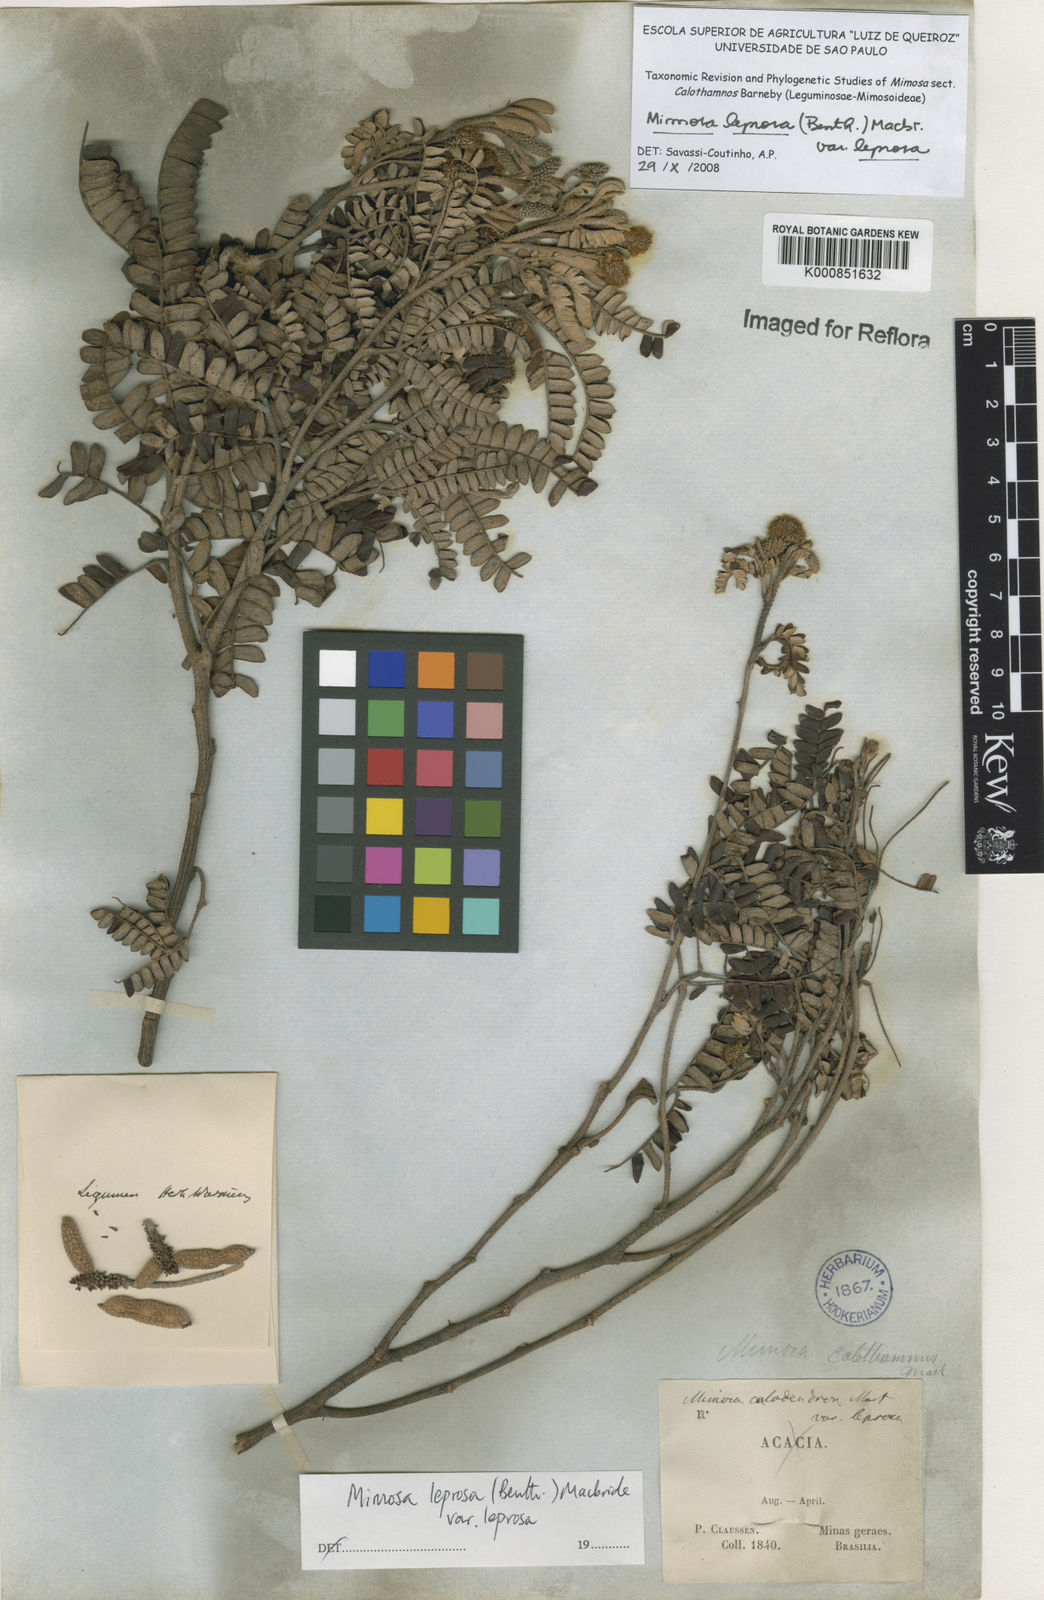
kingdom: Plantae
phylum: Tracheophyta
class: Magnoliopsida
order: Fabales
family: Fabaceae
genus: Mimosa
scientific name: Mimosa leprosa
